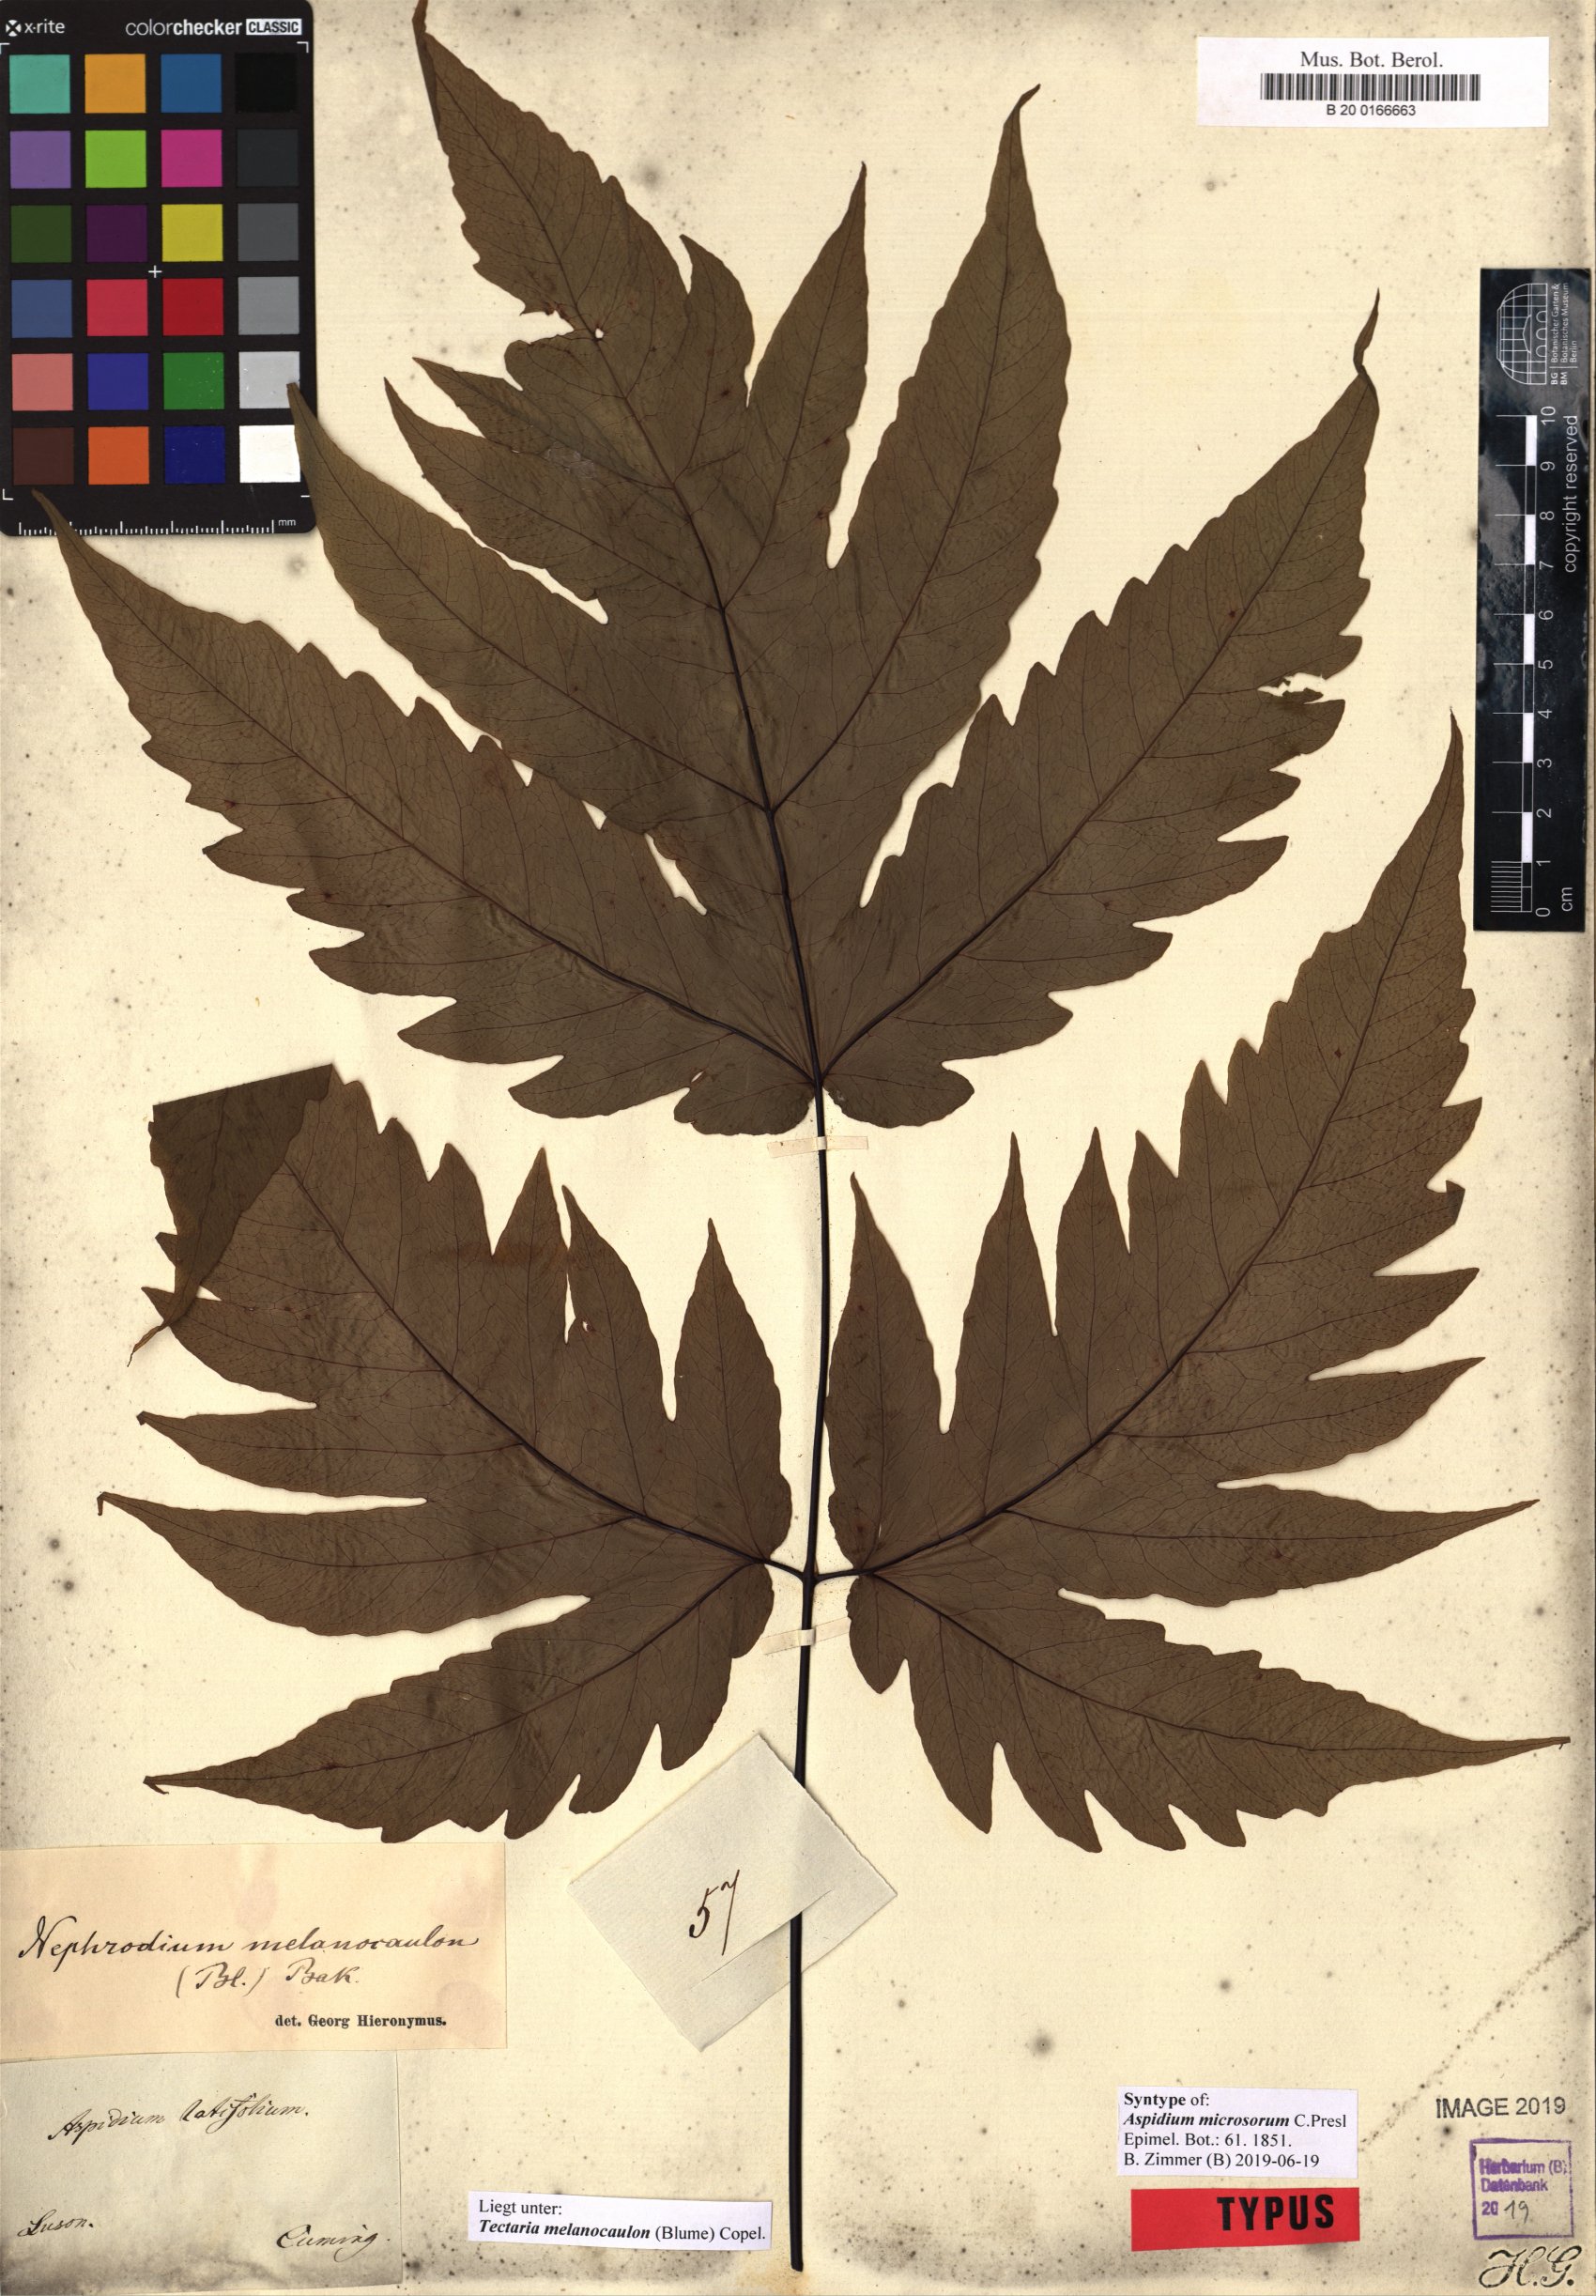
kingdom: Plantae
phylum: Tracheophyta
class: Polypodiopsida
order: Polypodiales
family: Tectariaceae
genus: Tectaria
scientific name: Tectaria melanocaulos
